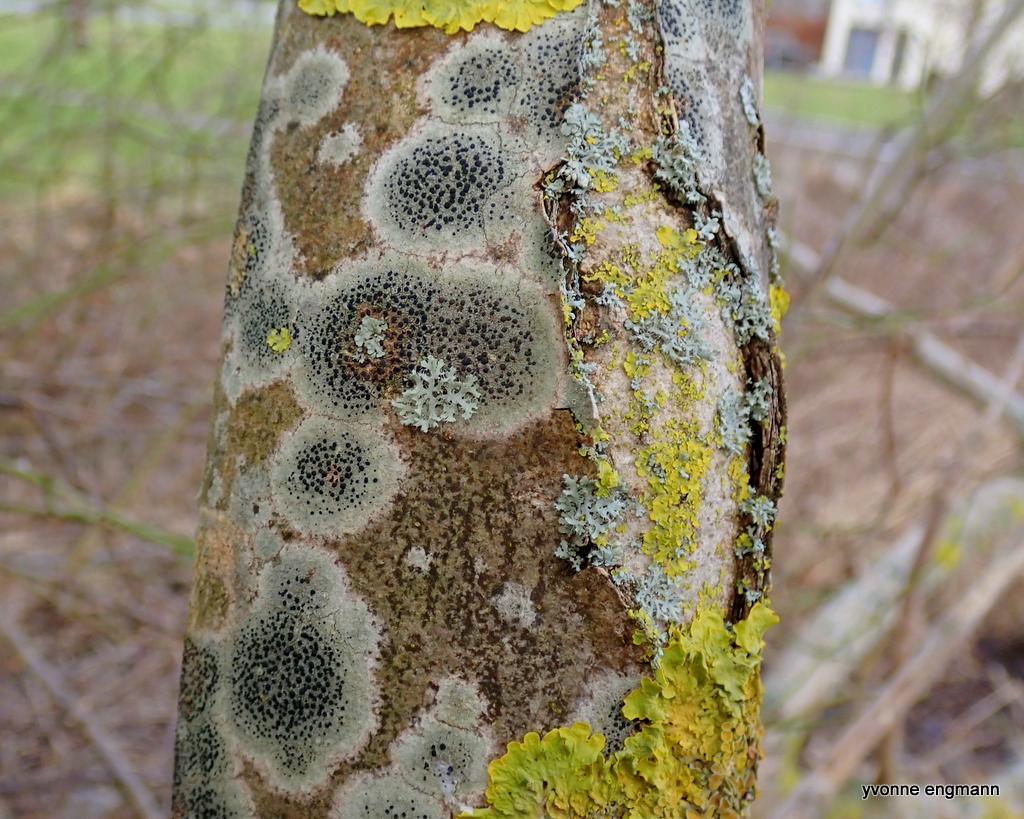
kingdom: Fungi
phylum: Ascomycota
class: Lecanoromycetes
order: Lecanorales
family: Lecanoraceae
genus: Lecidella
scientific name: Lecidella elaeochroma
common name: grågrøn skivelav
